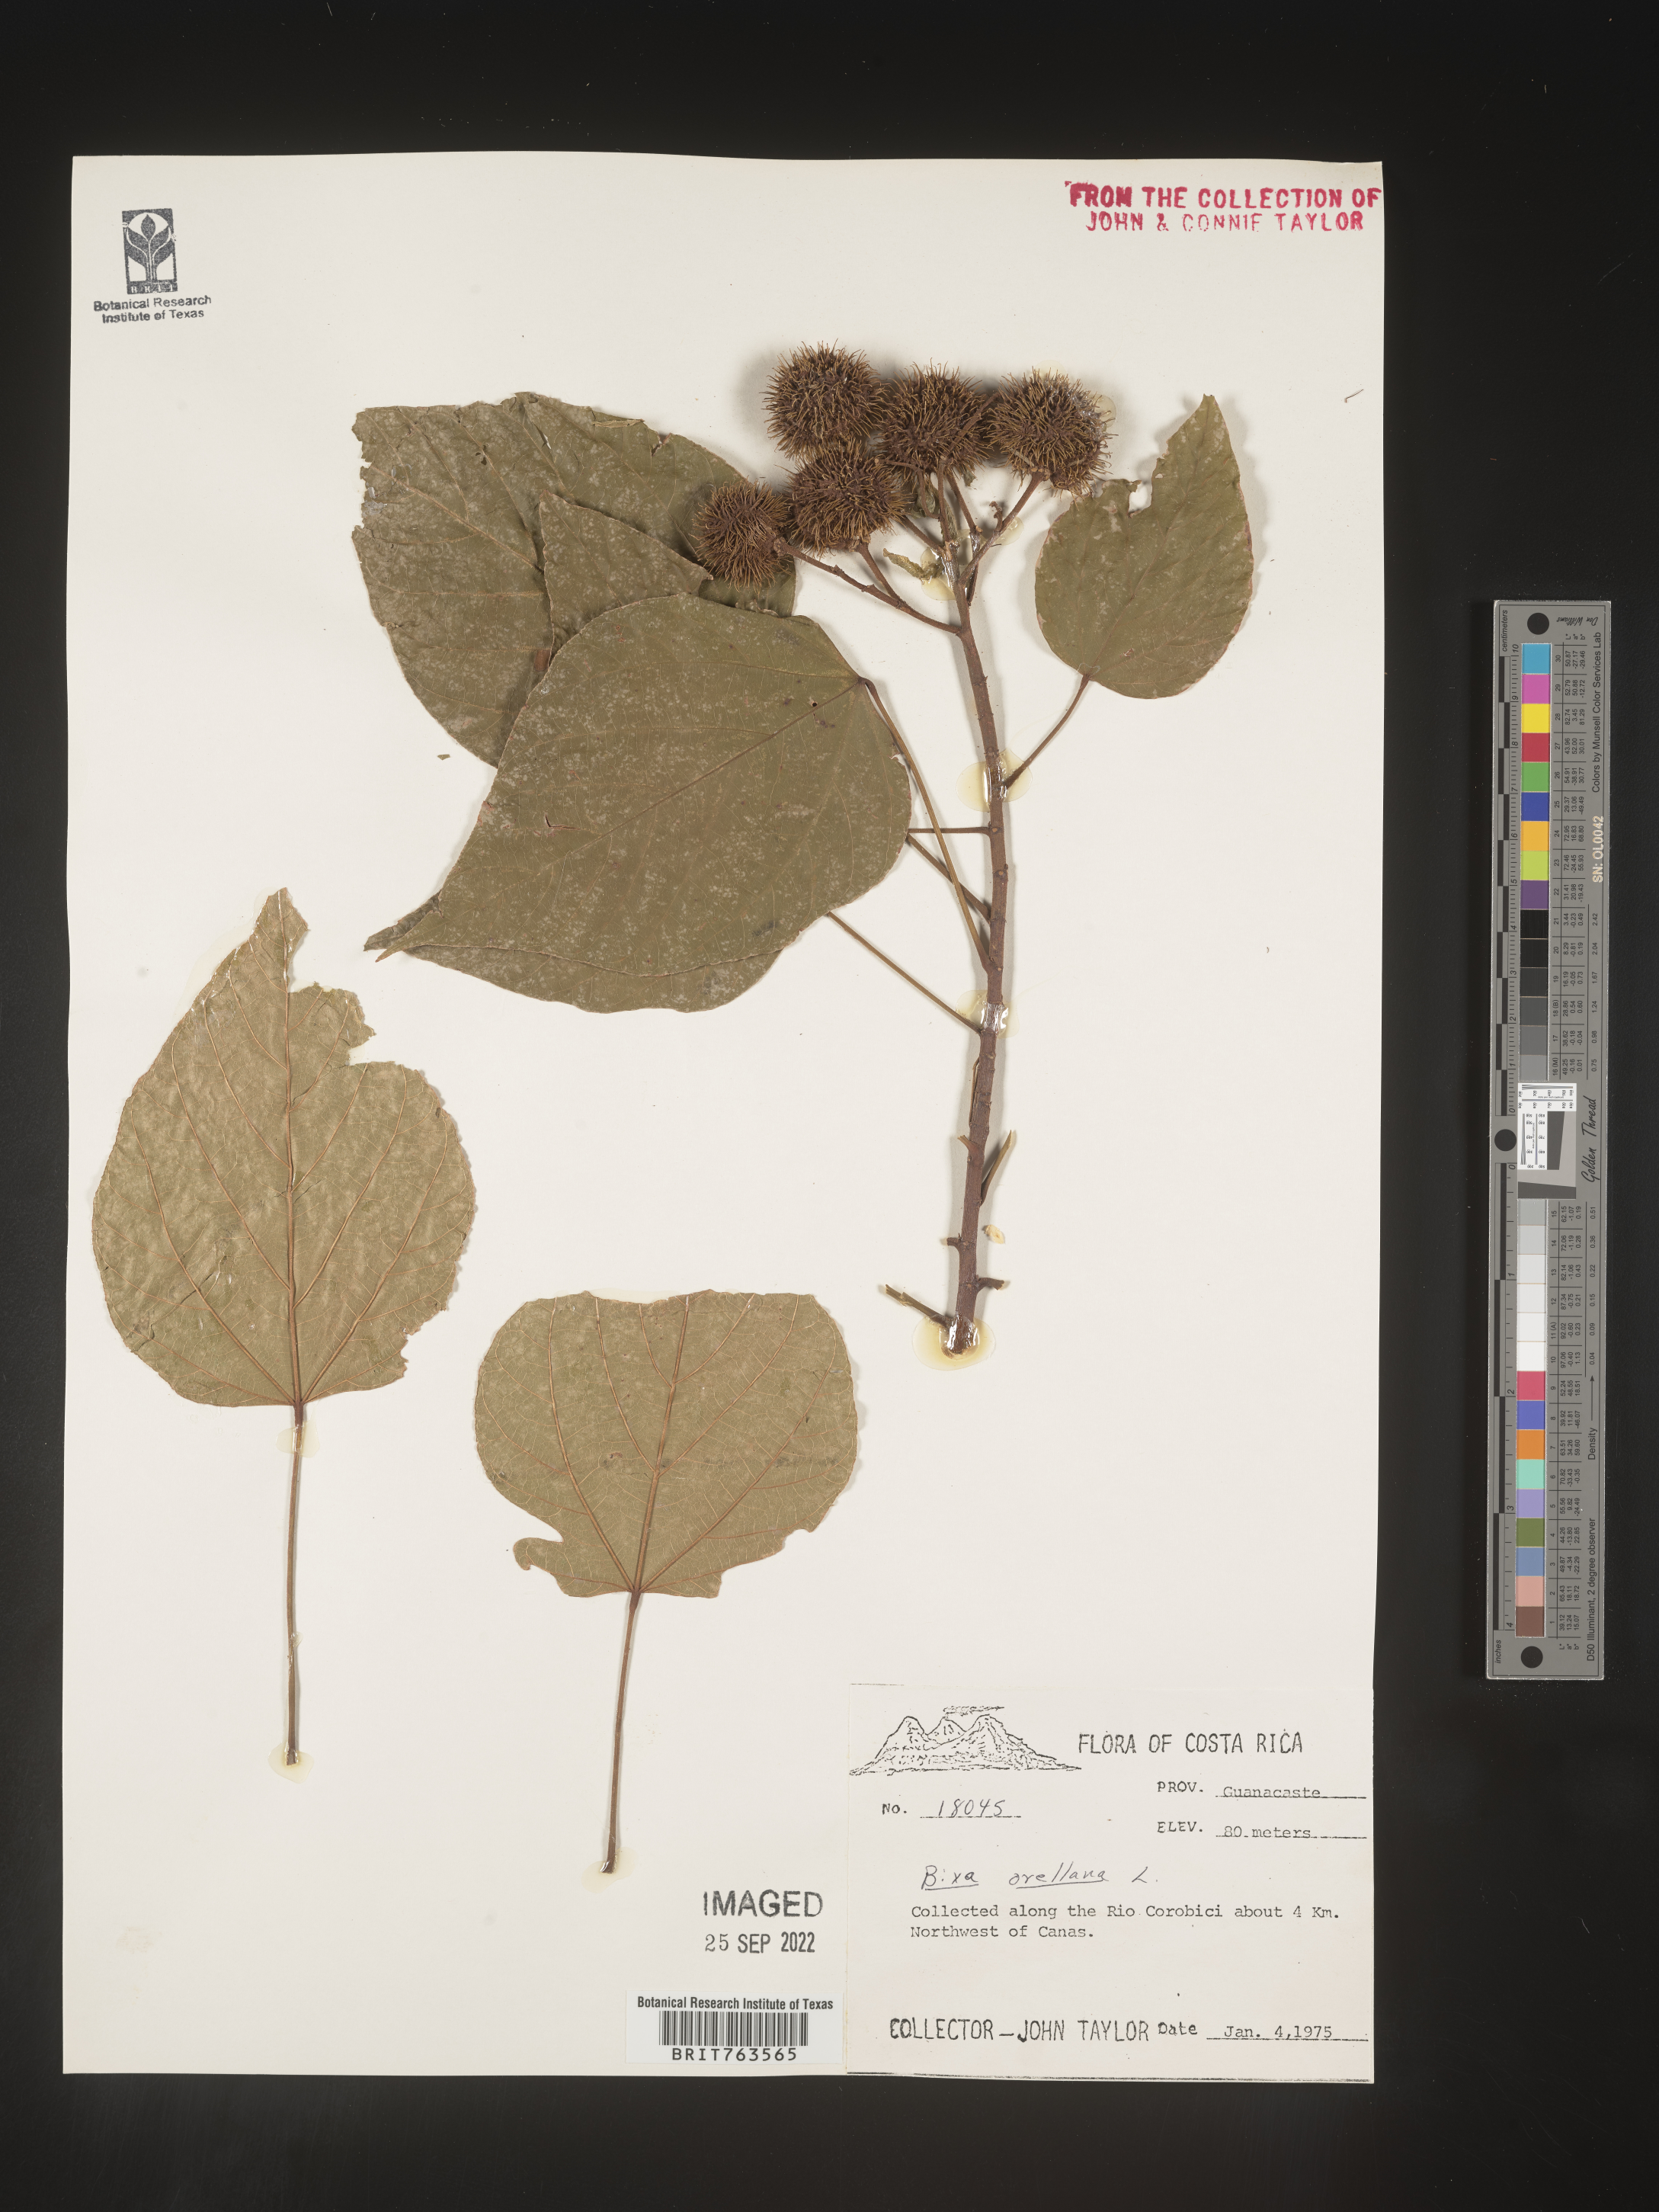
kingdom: Plantae
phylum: Tracheophyta
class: Magnoliopsida
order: Malvales
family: Bixaceae
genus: Bixa
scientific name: Bixa
